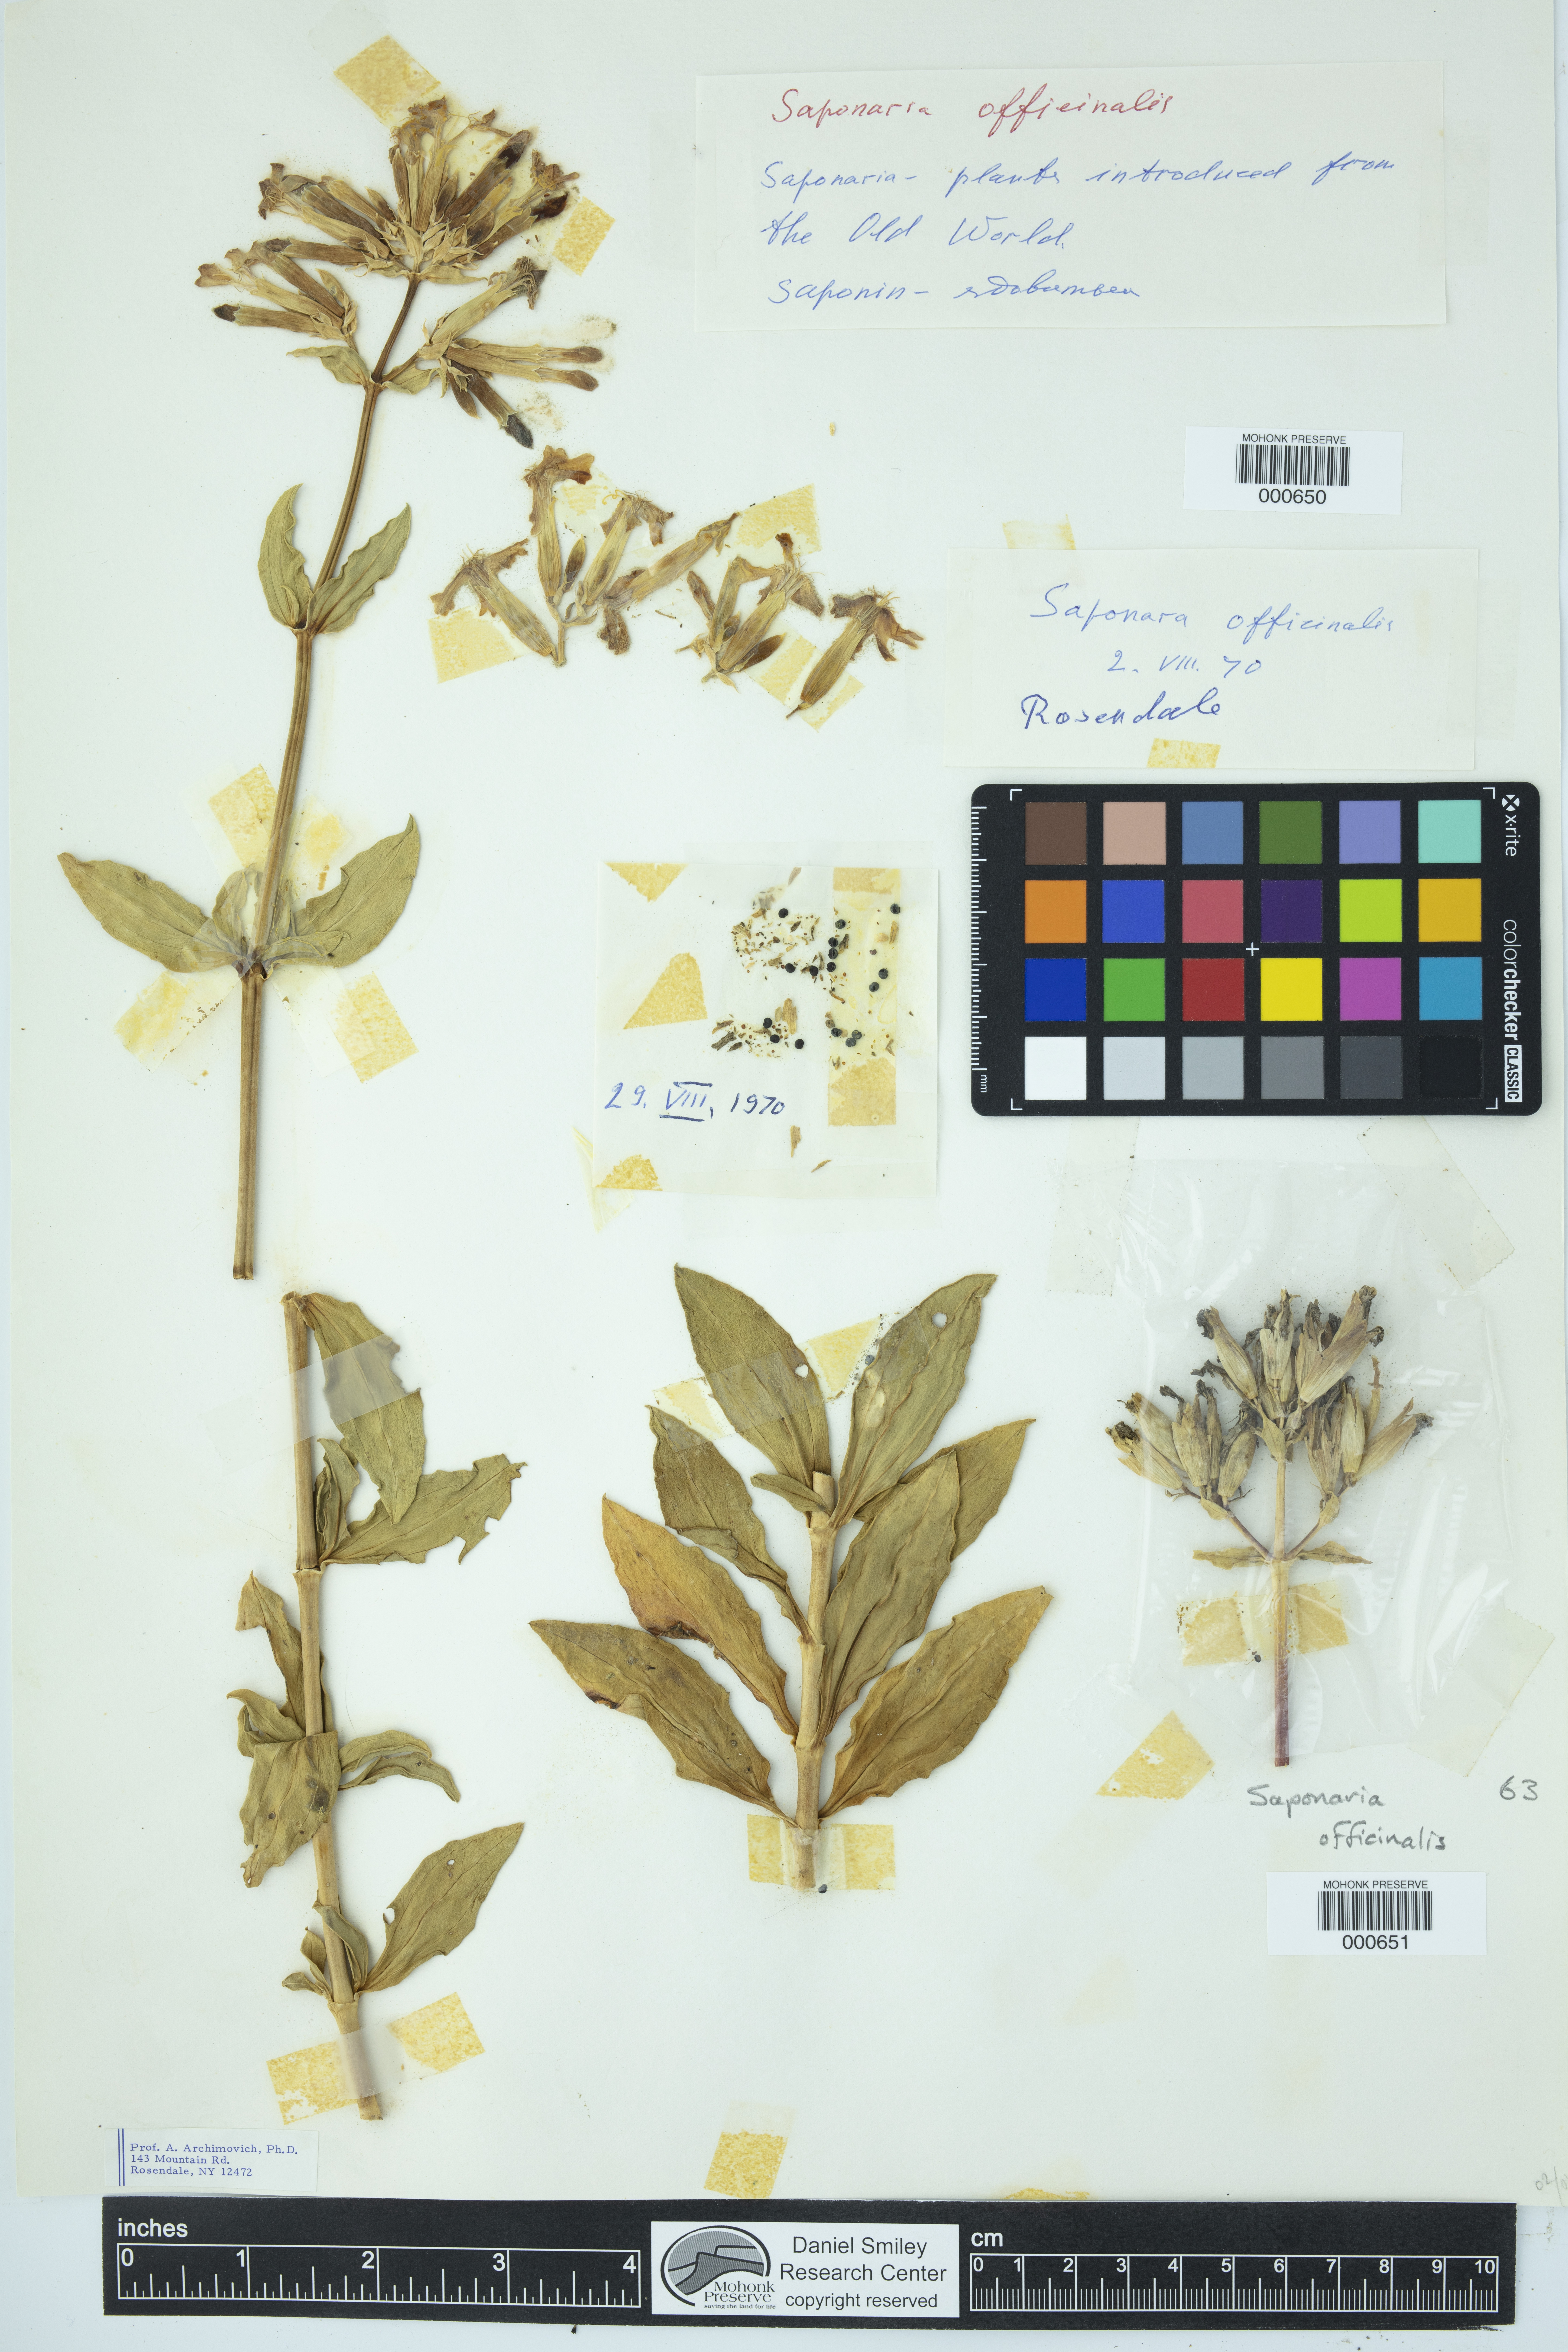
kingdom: Plantae
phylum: Tracheophyta
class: Magnoliopsida
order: Caryophyllales
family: Caryophyllaceae
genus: Saponaria
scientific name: Saponaria officinalis
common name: Soapwort
